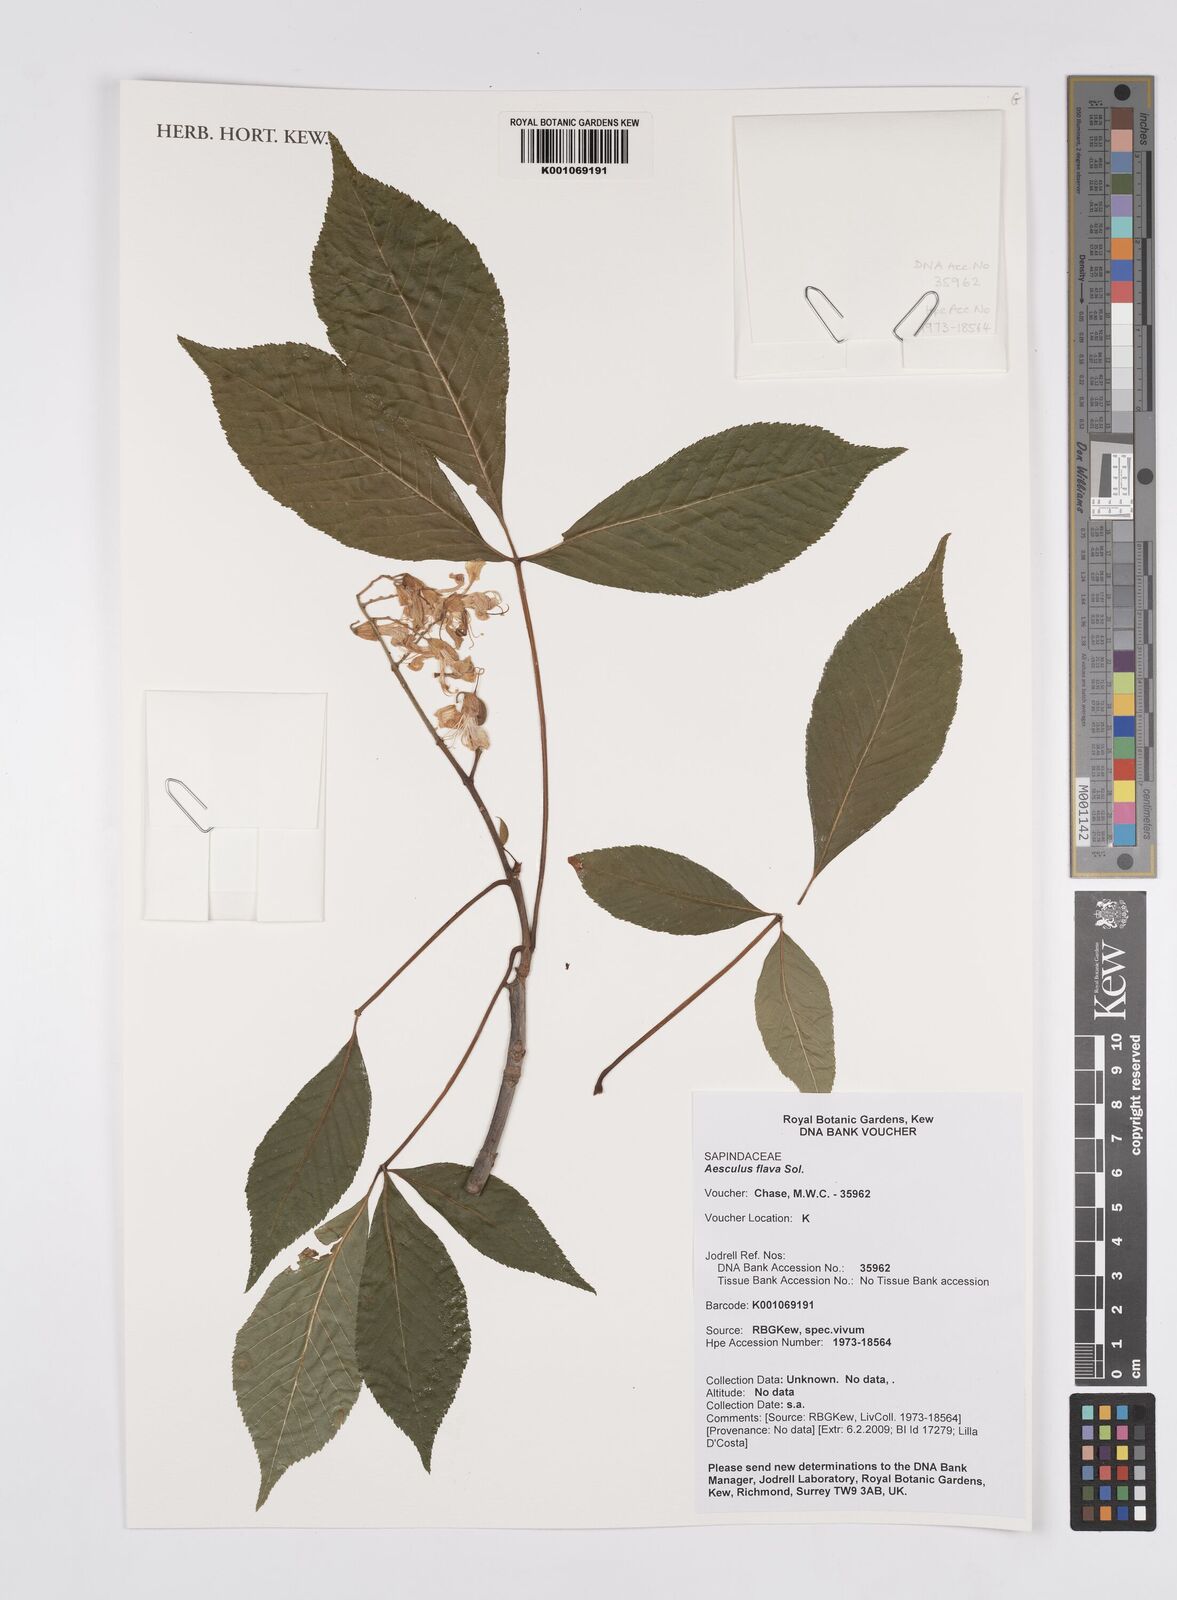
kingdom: Plantae
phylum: Tracheophyta
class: Magnoliopsida
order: Sapindales
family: Sapindaceae
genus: Aesculus
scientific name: Aesculus flava
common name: Yellow buckeye
